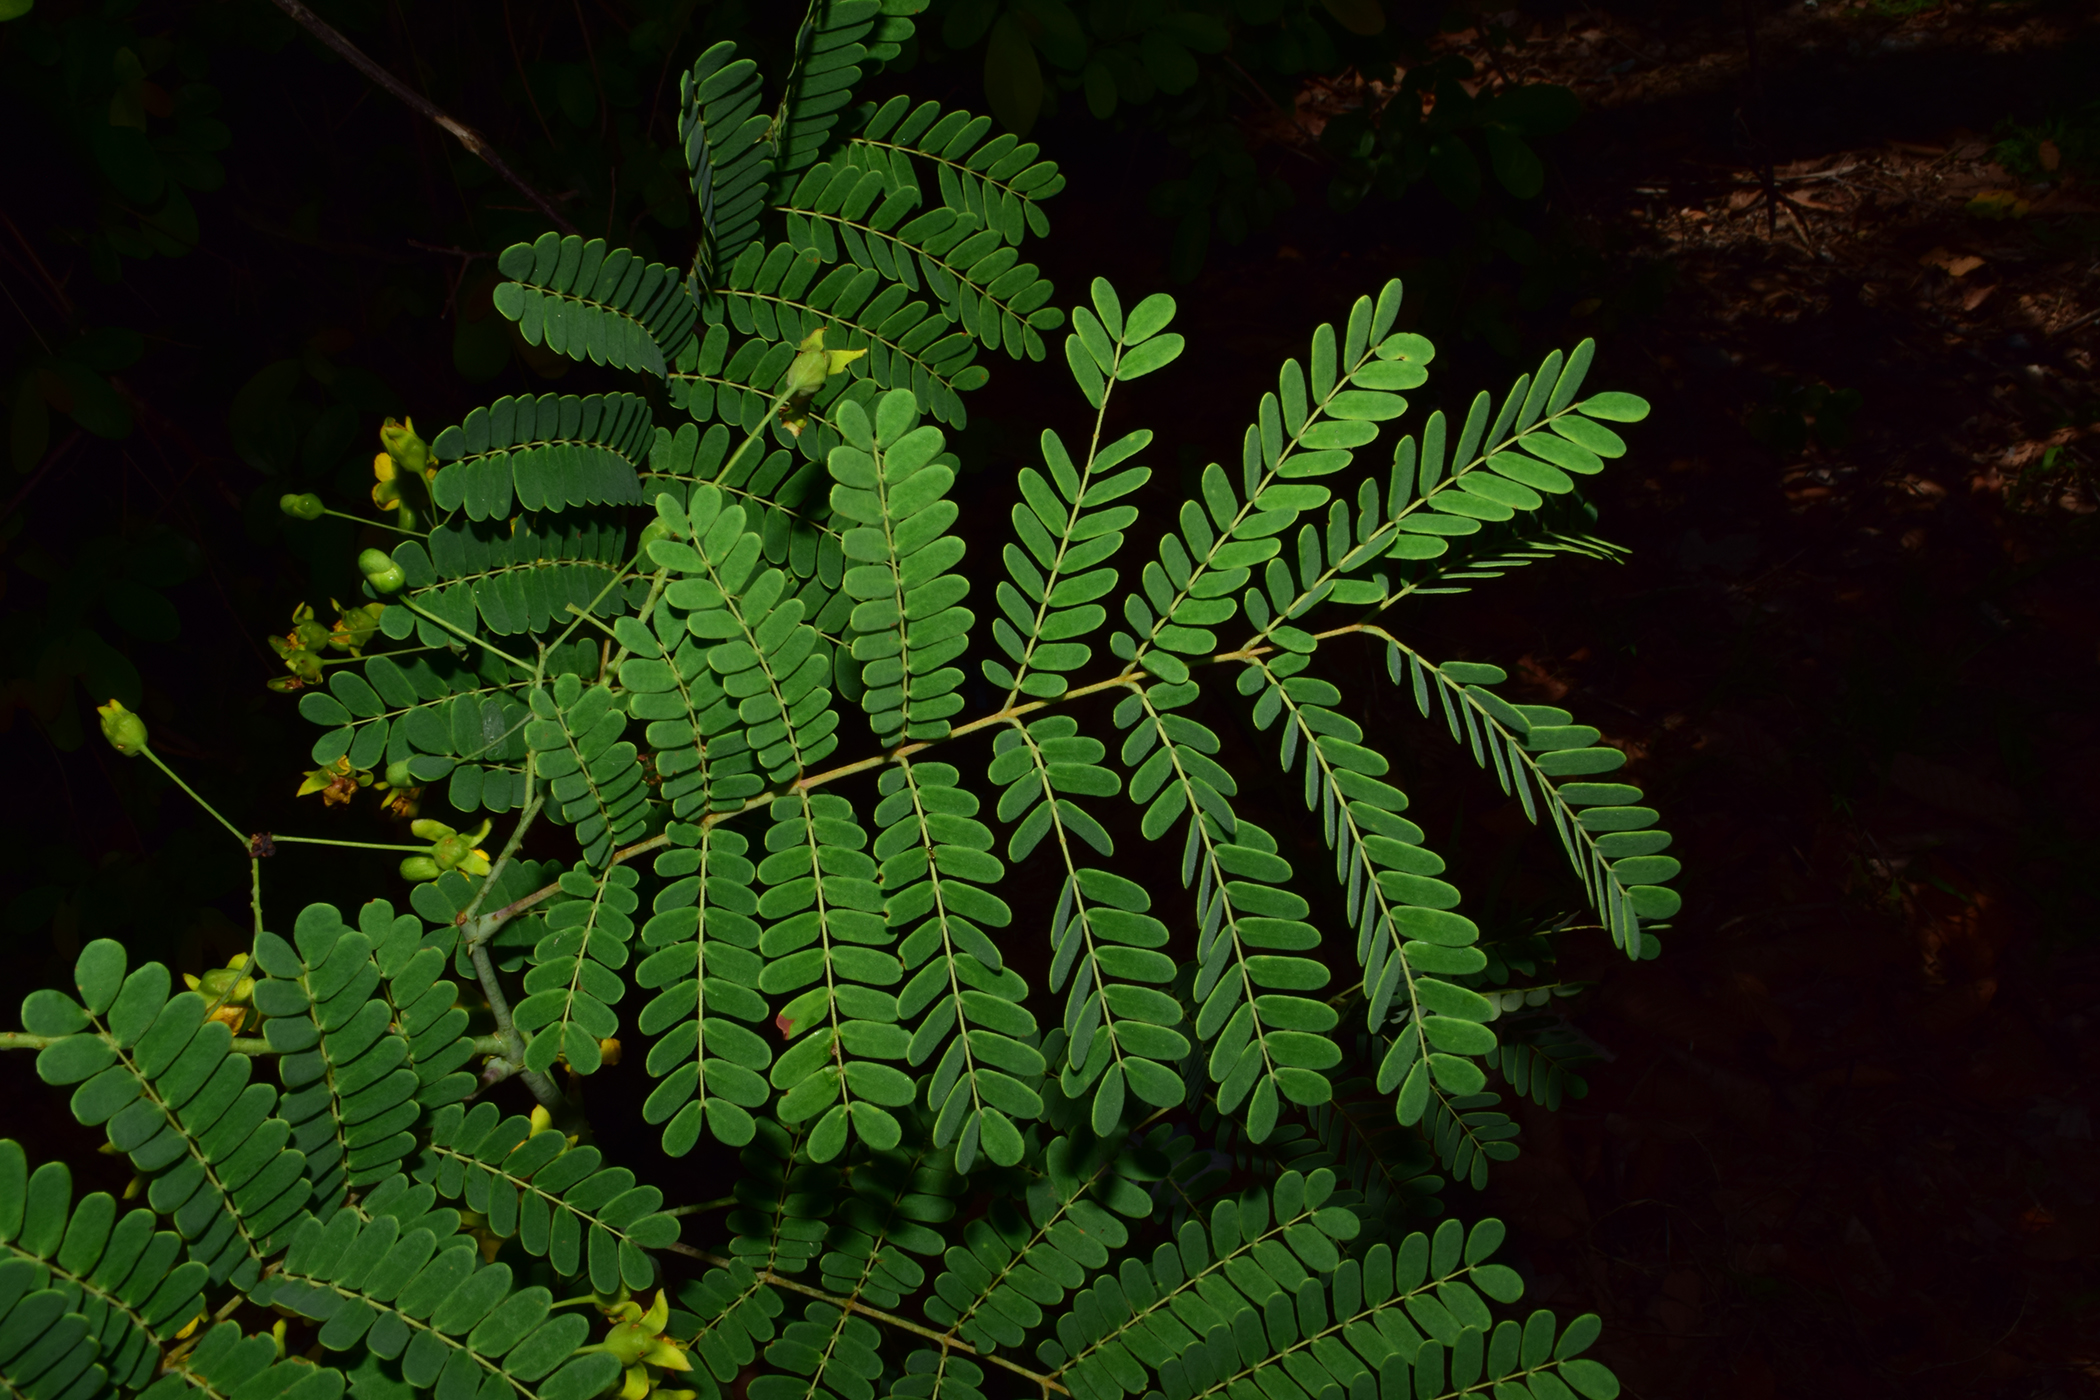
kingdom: Plantae
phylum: Tracheophyta
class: Magnoliopsida
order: Fabales
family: Fabaceae
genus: Moullava
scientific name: Moullava digyna
